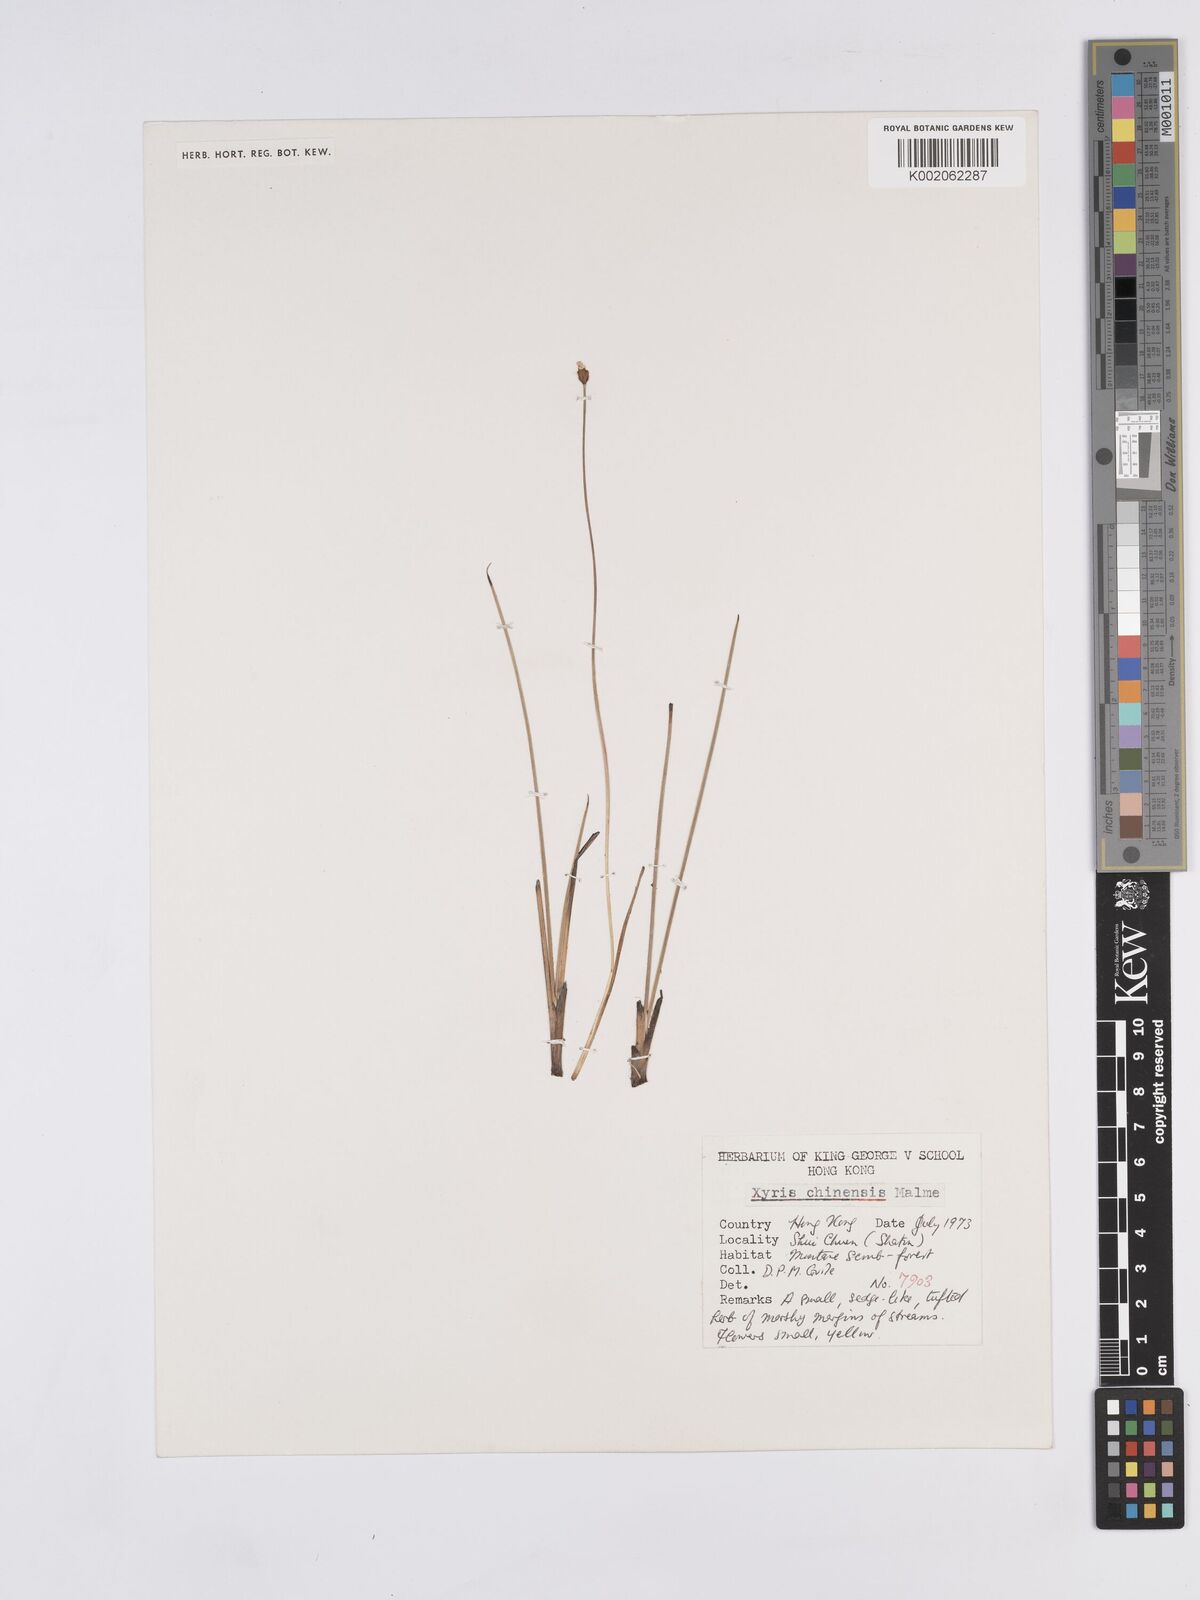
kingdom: Plantae
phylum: Tracheophyta
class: Liliopsida
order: Poales
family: Xyridaceae
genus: Xyris
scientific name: Xyris bancana
